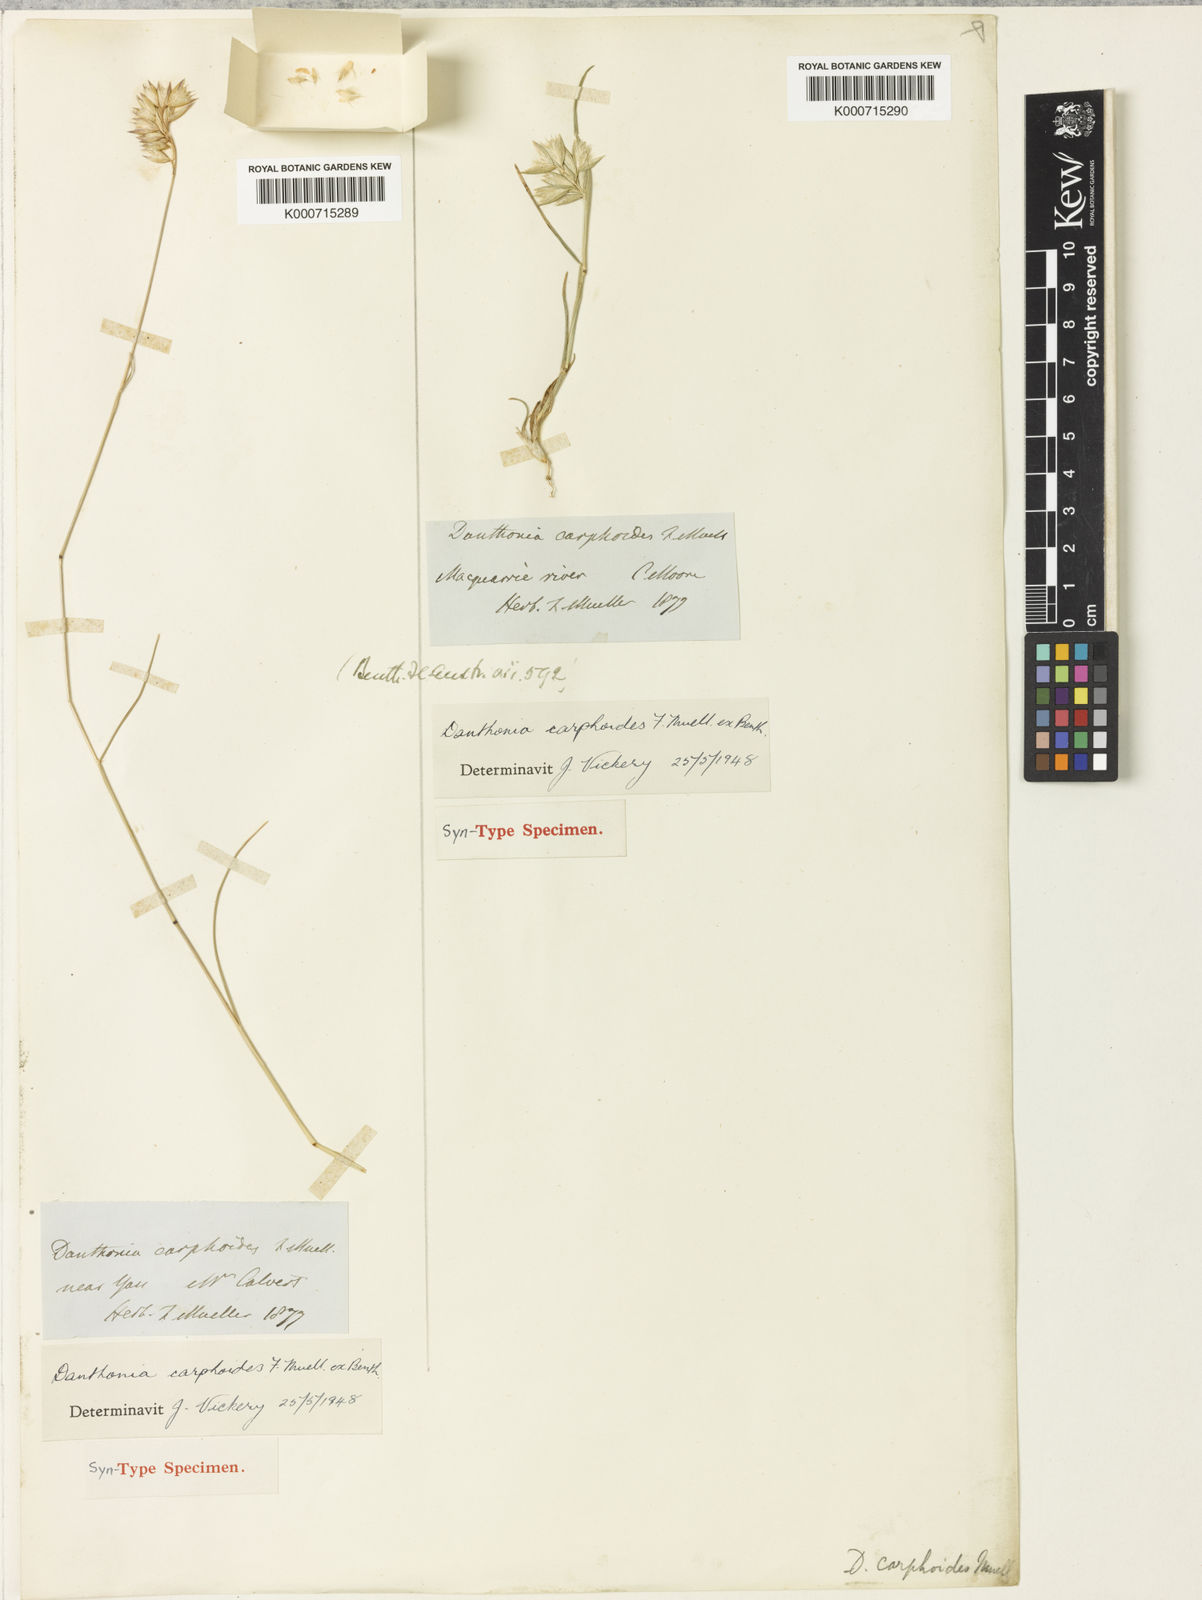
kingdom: Plantae
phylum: Tracheophyta
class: Liliopsida
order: Poales
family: Poaceae
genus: Rytidosperma
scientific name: Rytidosperma carphoides
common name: Short wallaby grass
